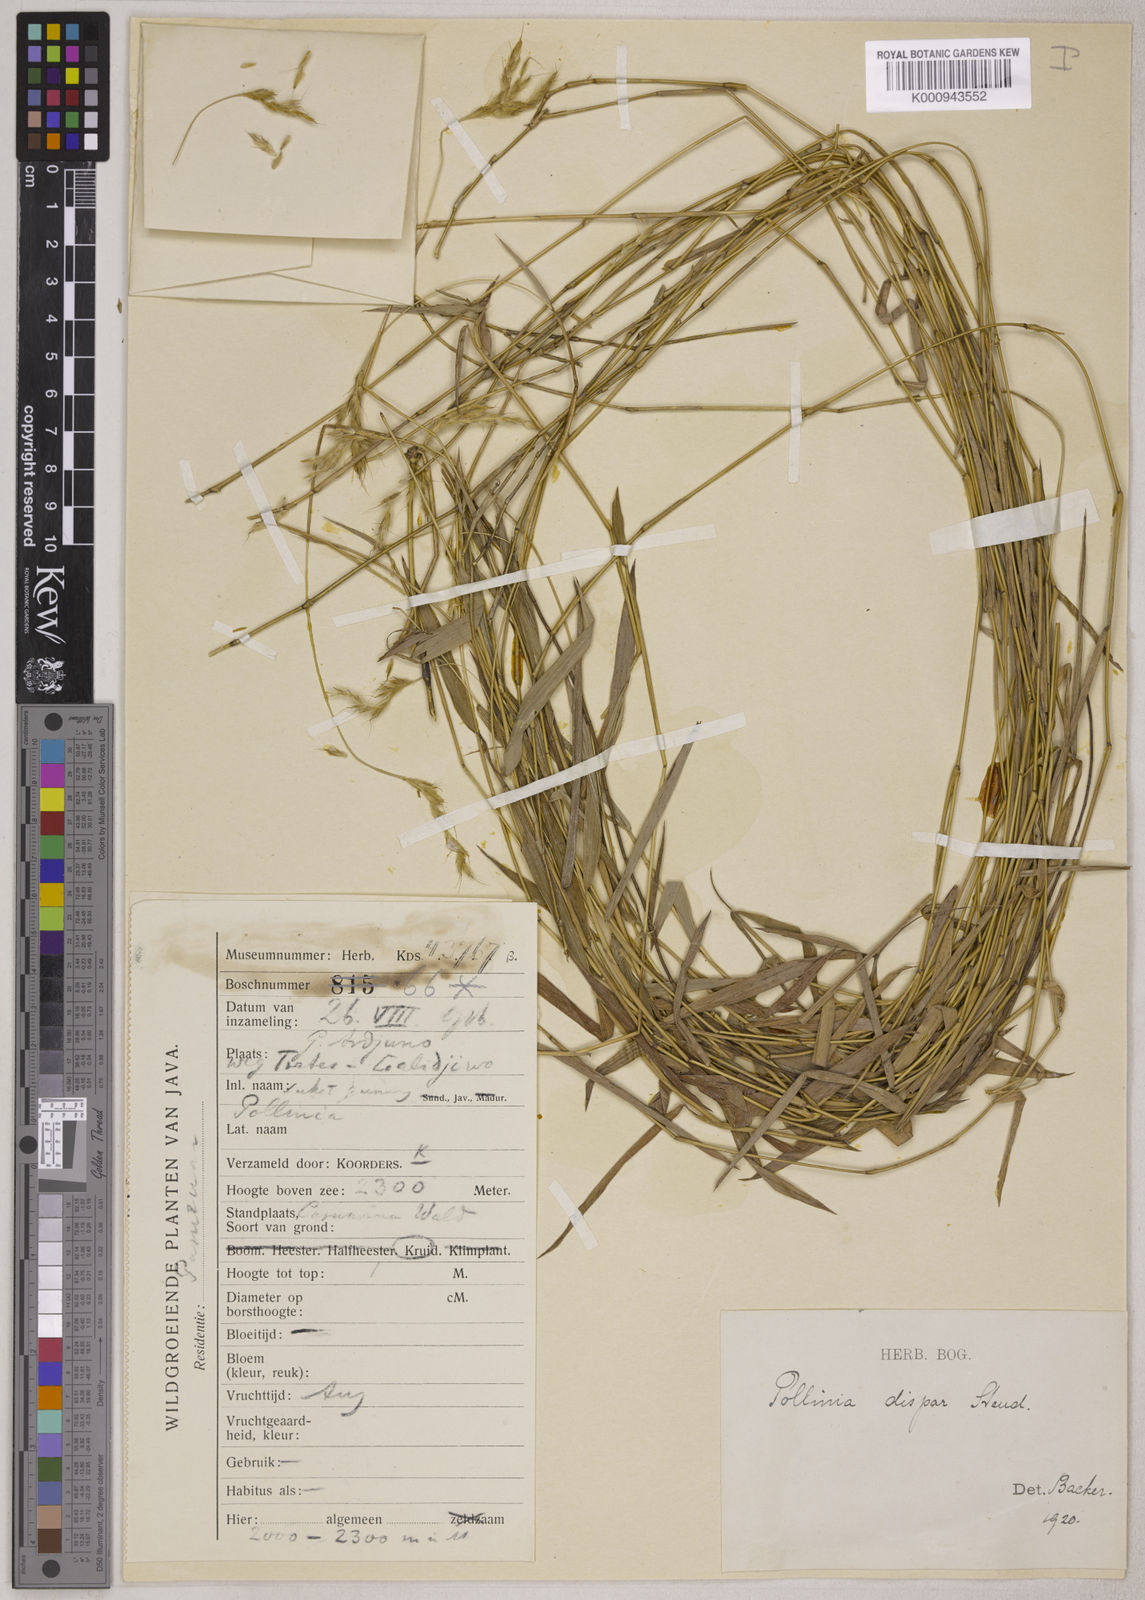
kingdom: Plantae
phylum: Tracheophyta
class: Liliopsida
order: Poales
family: Poaceae
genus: Microstegium
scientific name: Microstegium dispar
